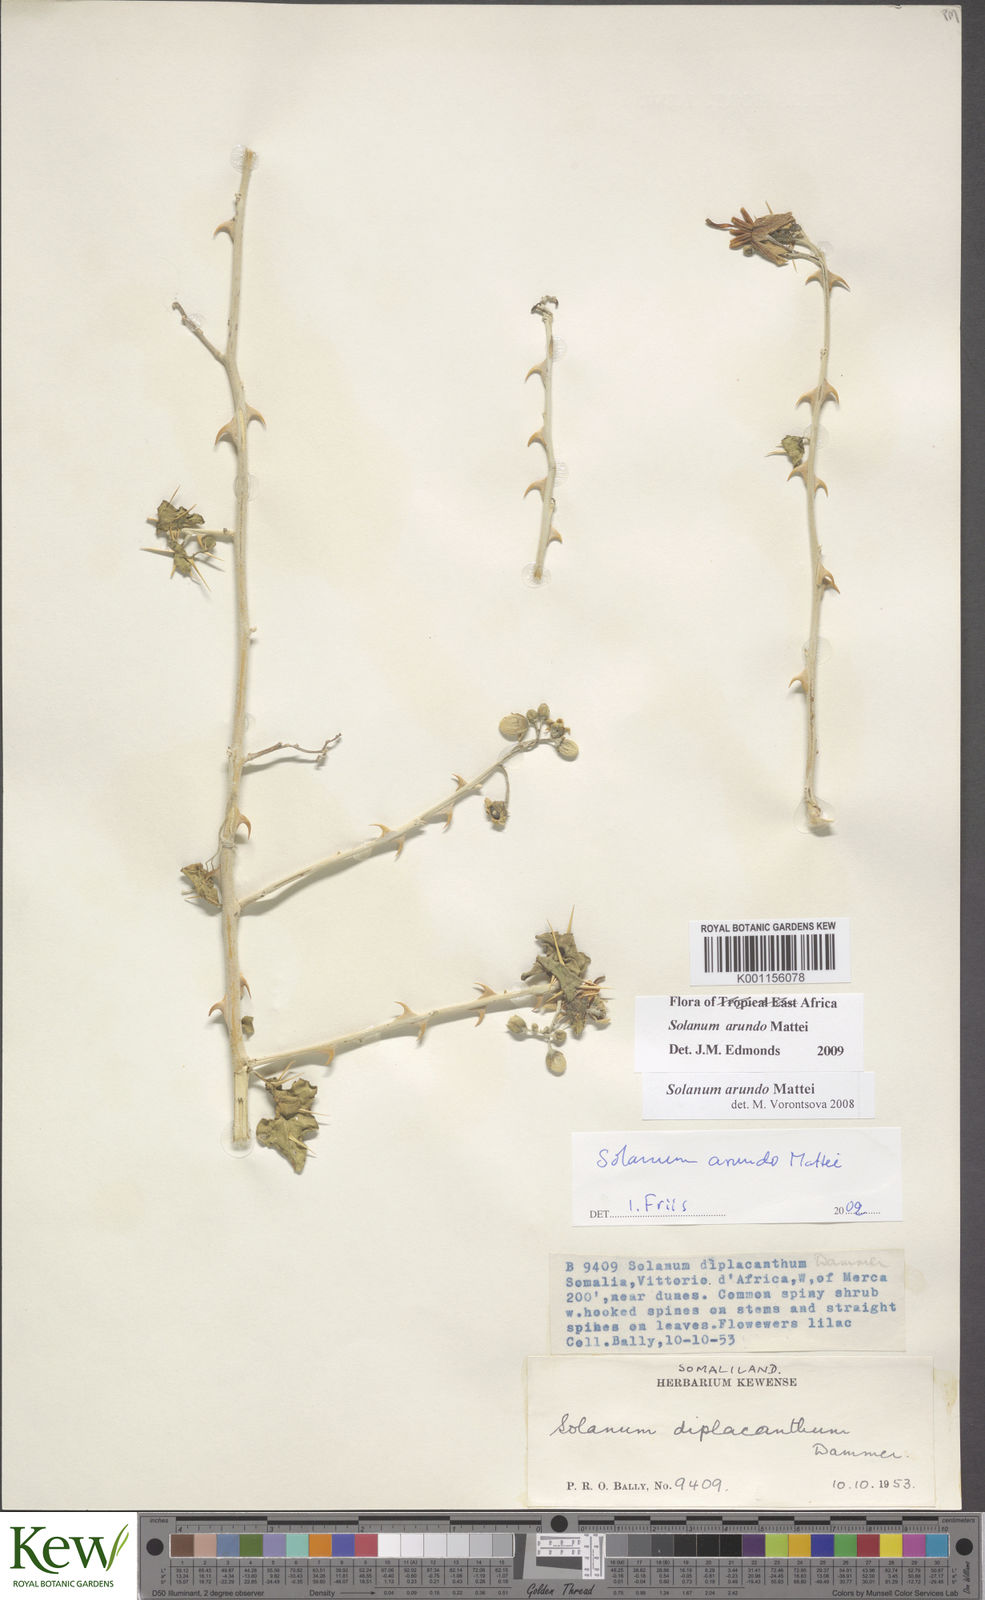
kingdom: Plantae
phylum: Tracheophyta
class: Magnoliopsida
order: Solanales
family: Solanaceae
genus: Solanum
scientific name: Solanum arundo
